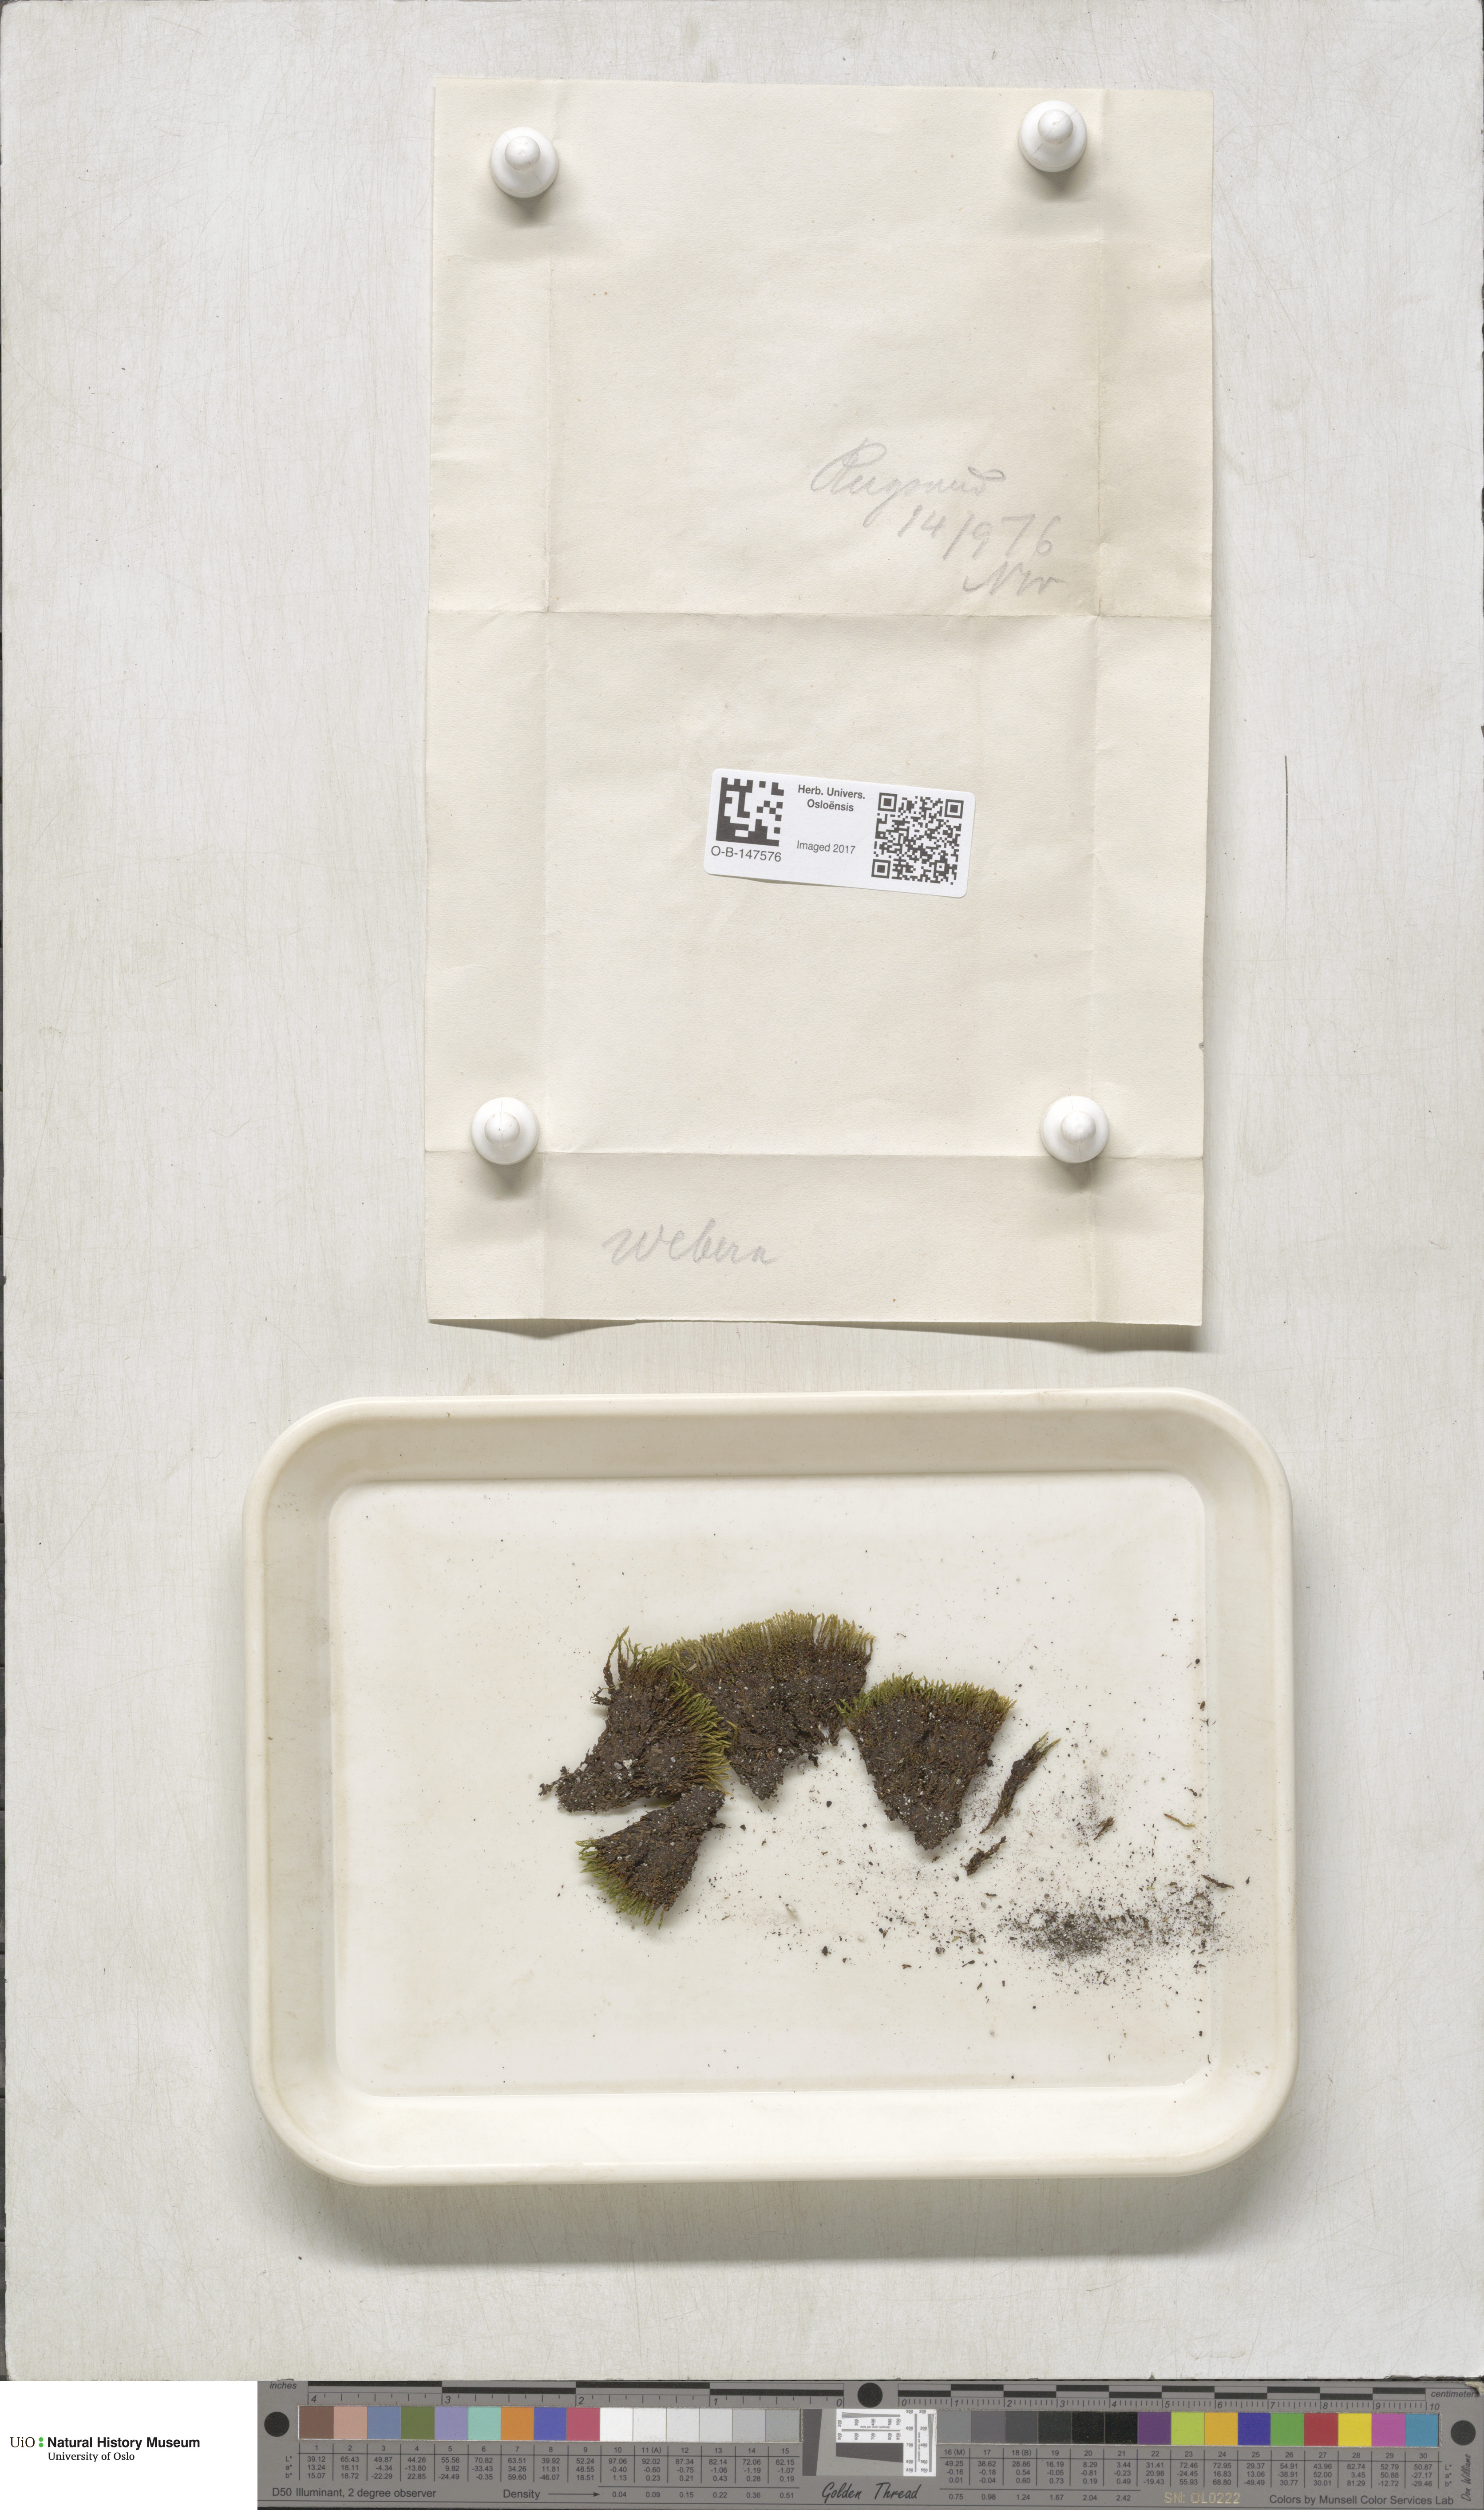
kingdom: Plantae
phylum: Bryophyta
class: Bryopsida
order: Bryales
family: Mniaceae
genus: Pohlia
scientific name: Pohlia
